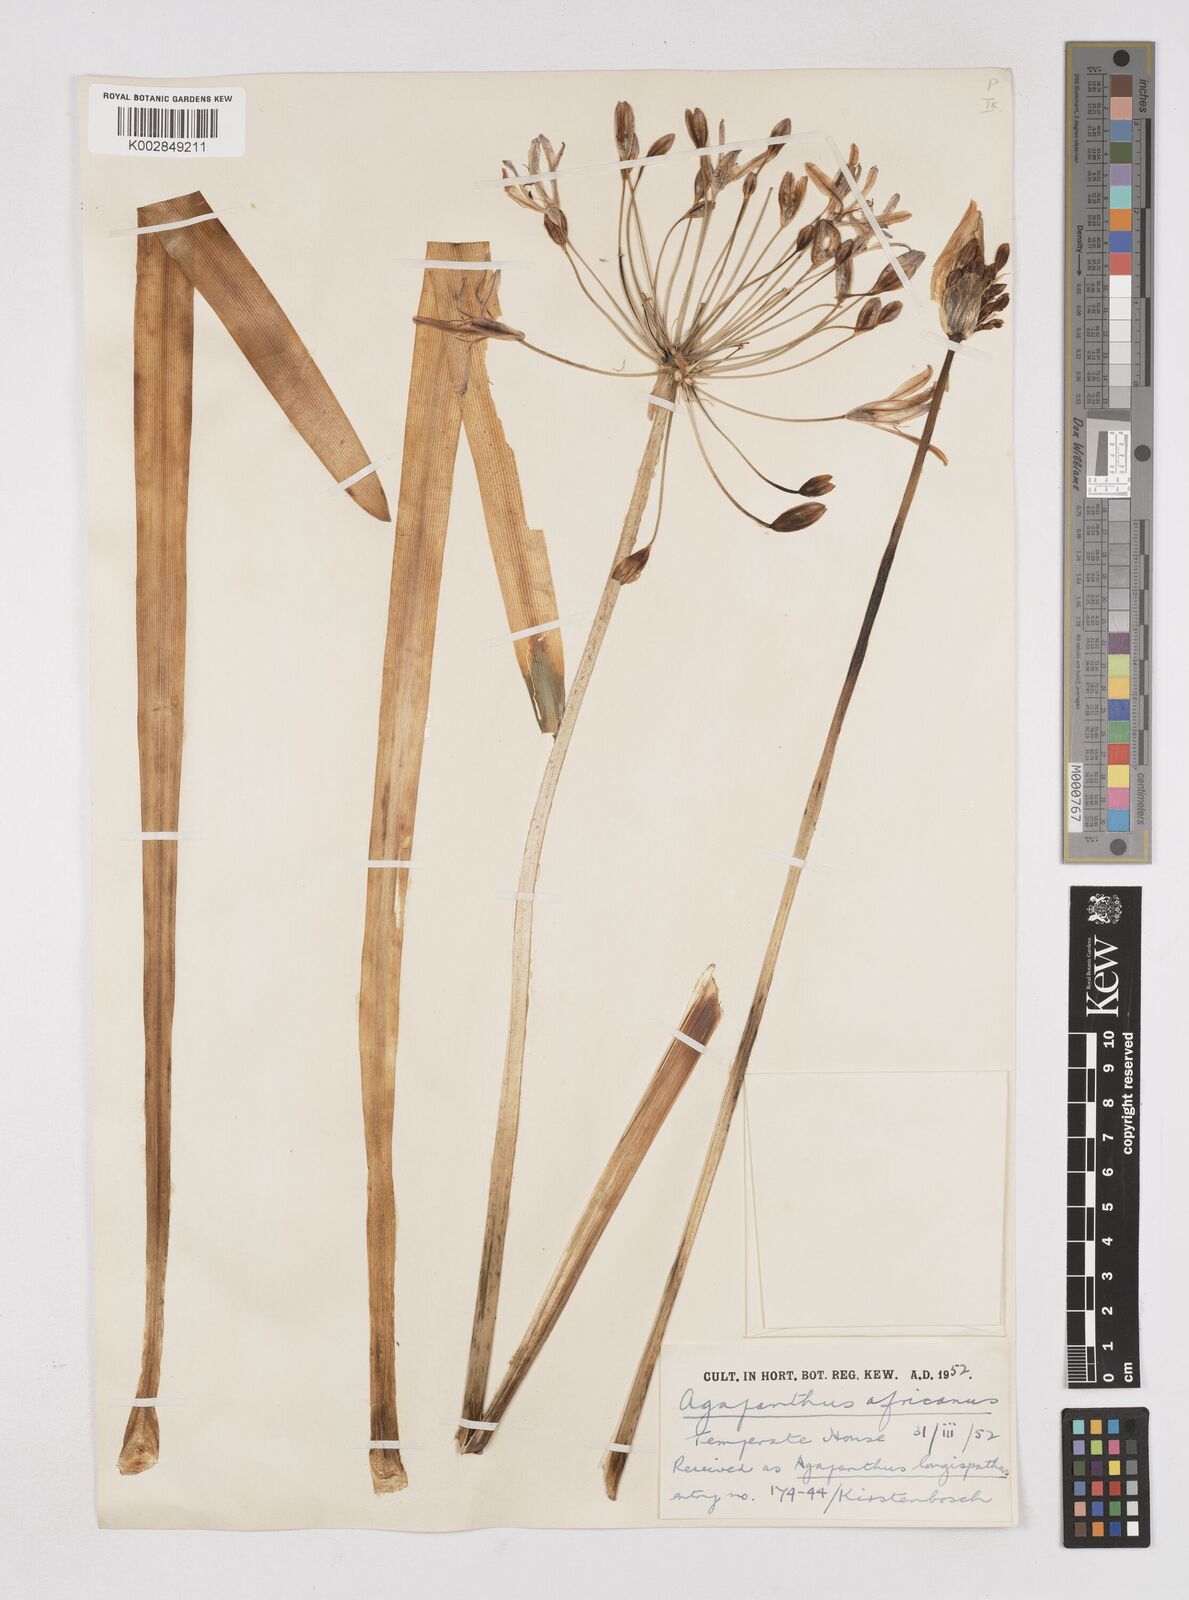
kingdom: Plantae
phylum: Tracheophyta
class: Liliopsida
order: Asparagales
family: Amaryllidaceae
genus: Agapanthus
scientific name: Agapanthus africanus
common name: Lily-of-the-nile
